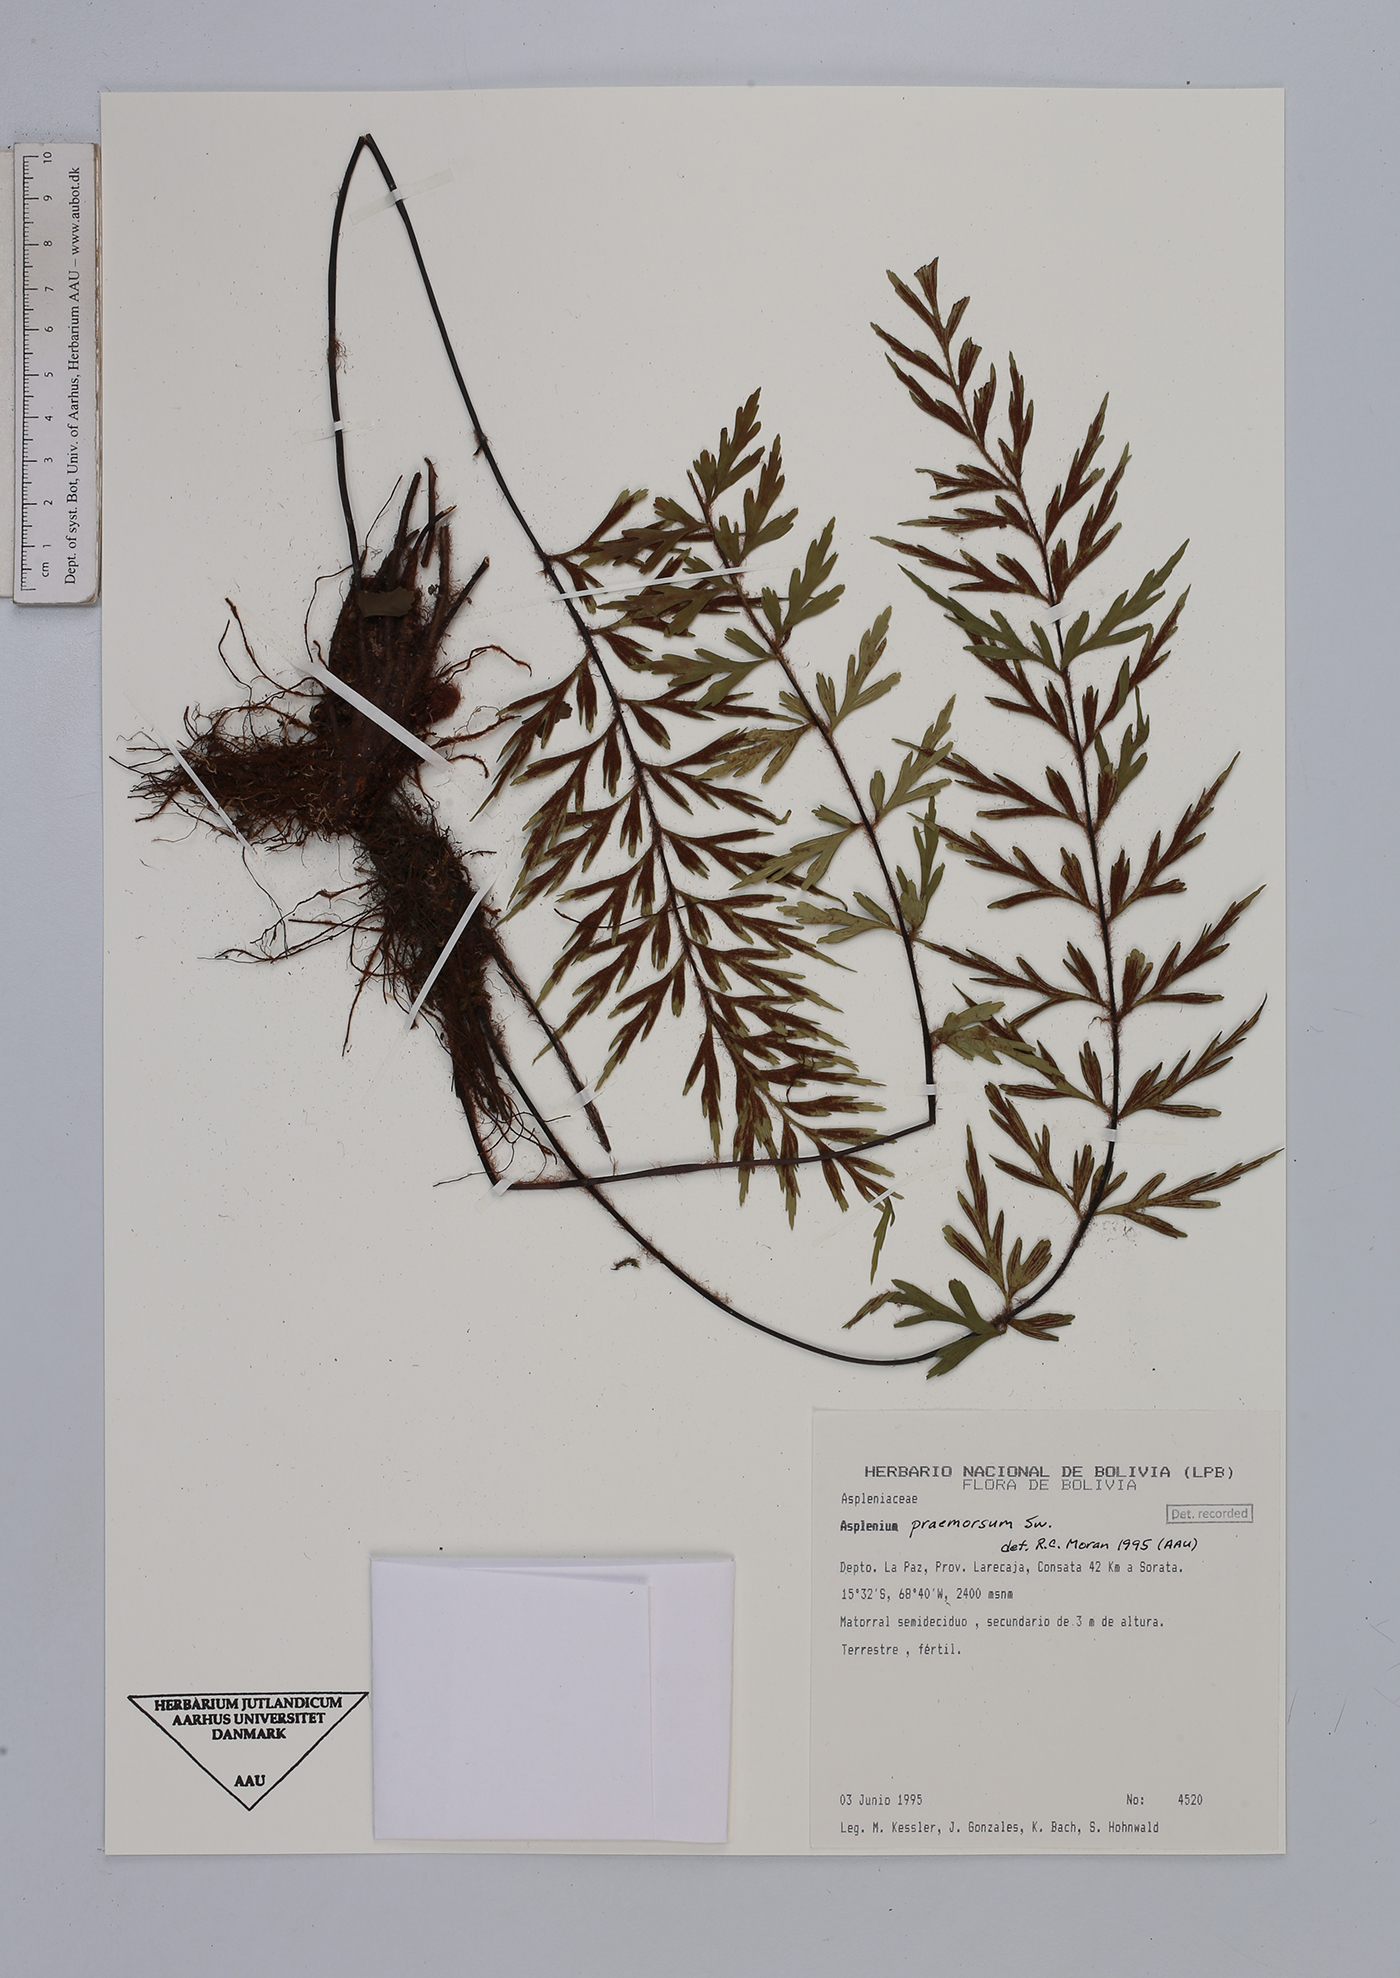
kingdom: Plantae
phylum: Tracheophyta
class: Polypodiopsida
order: Polypodiales
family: Aspleniaceae
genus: Asplenium
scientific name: Asplenium praemorsum
